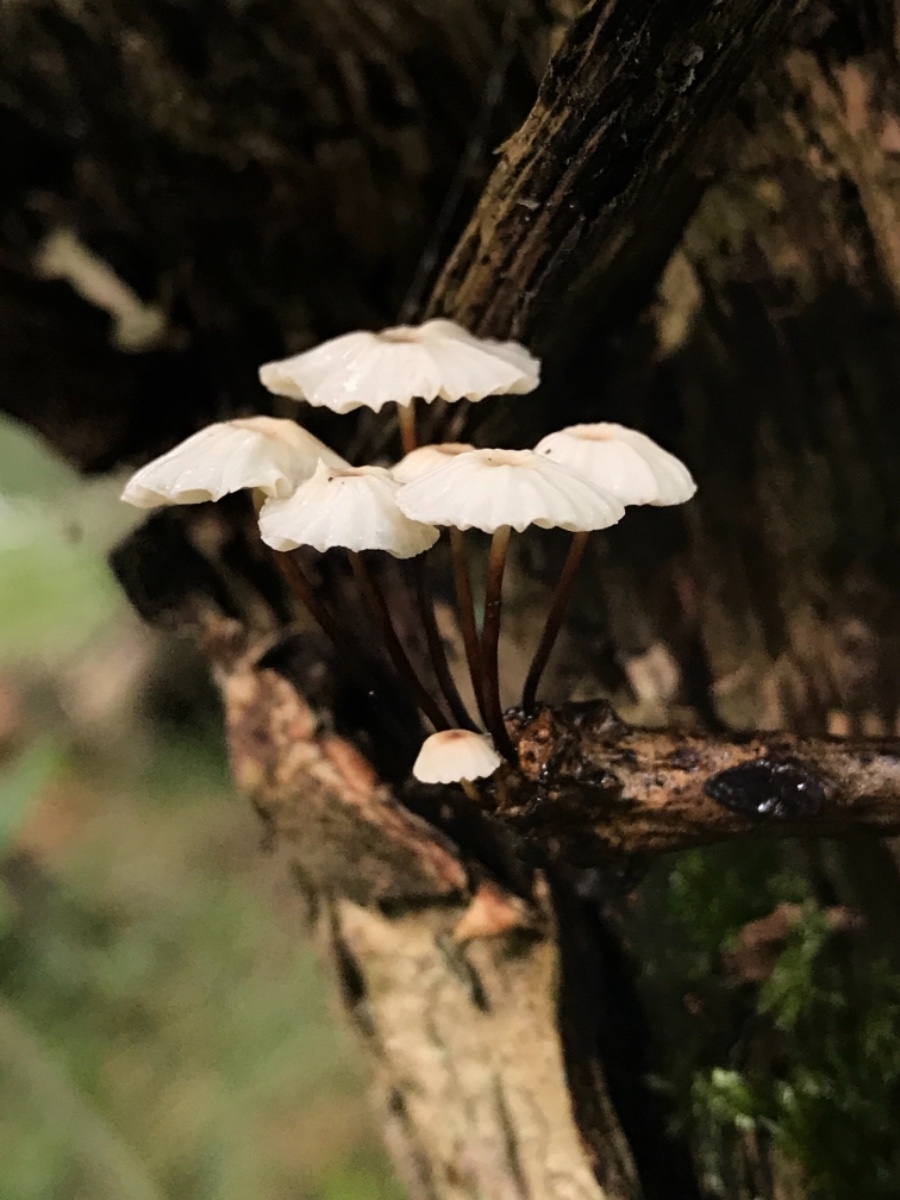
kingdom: Fungi
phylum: Basidiomycota
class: Agaricomycetes
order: Agaricales
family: Marasmiaceae
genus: Marasmius
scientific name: Marasmius rotula
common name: hjul-bruskhat
